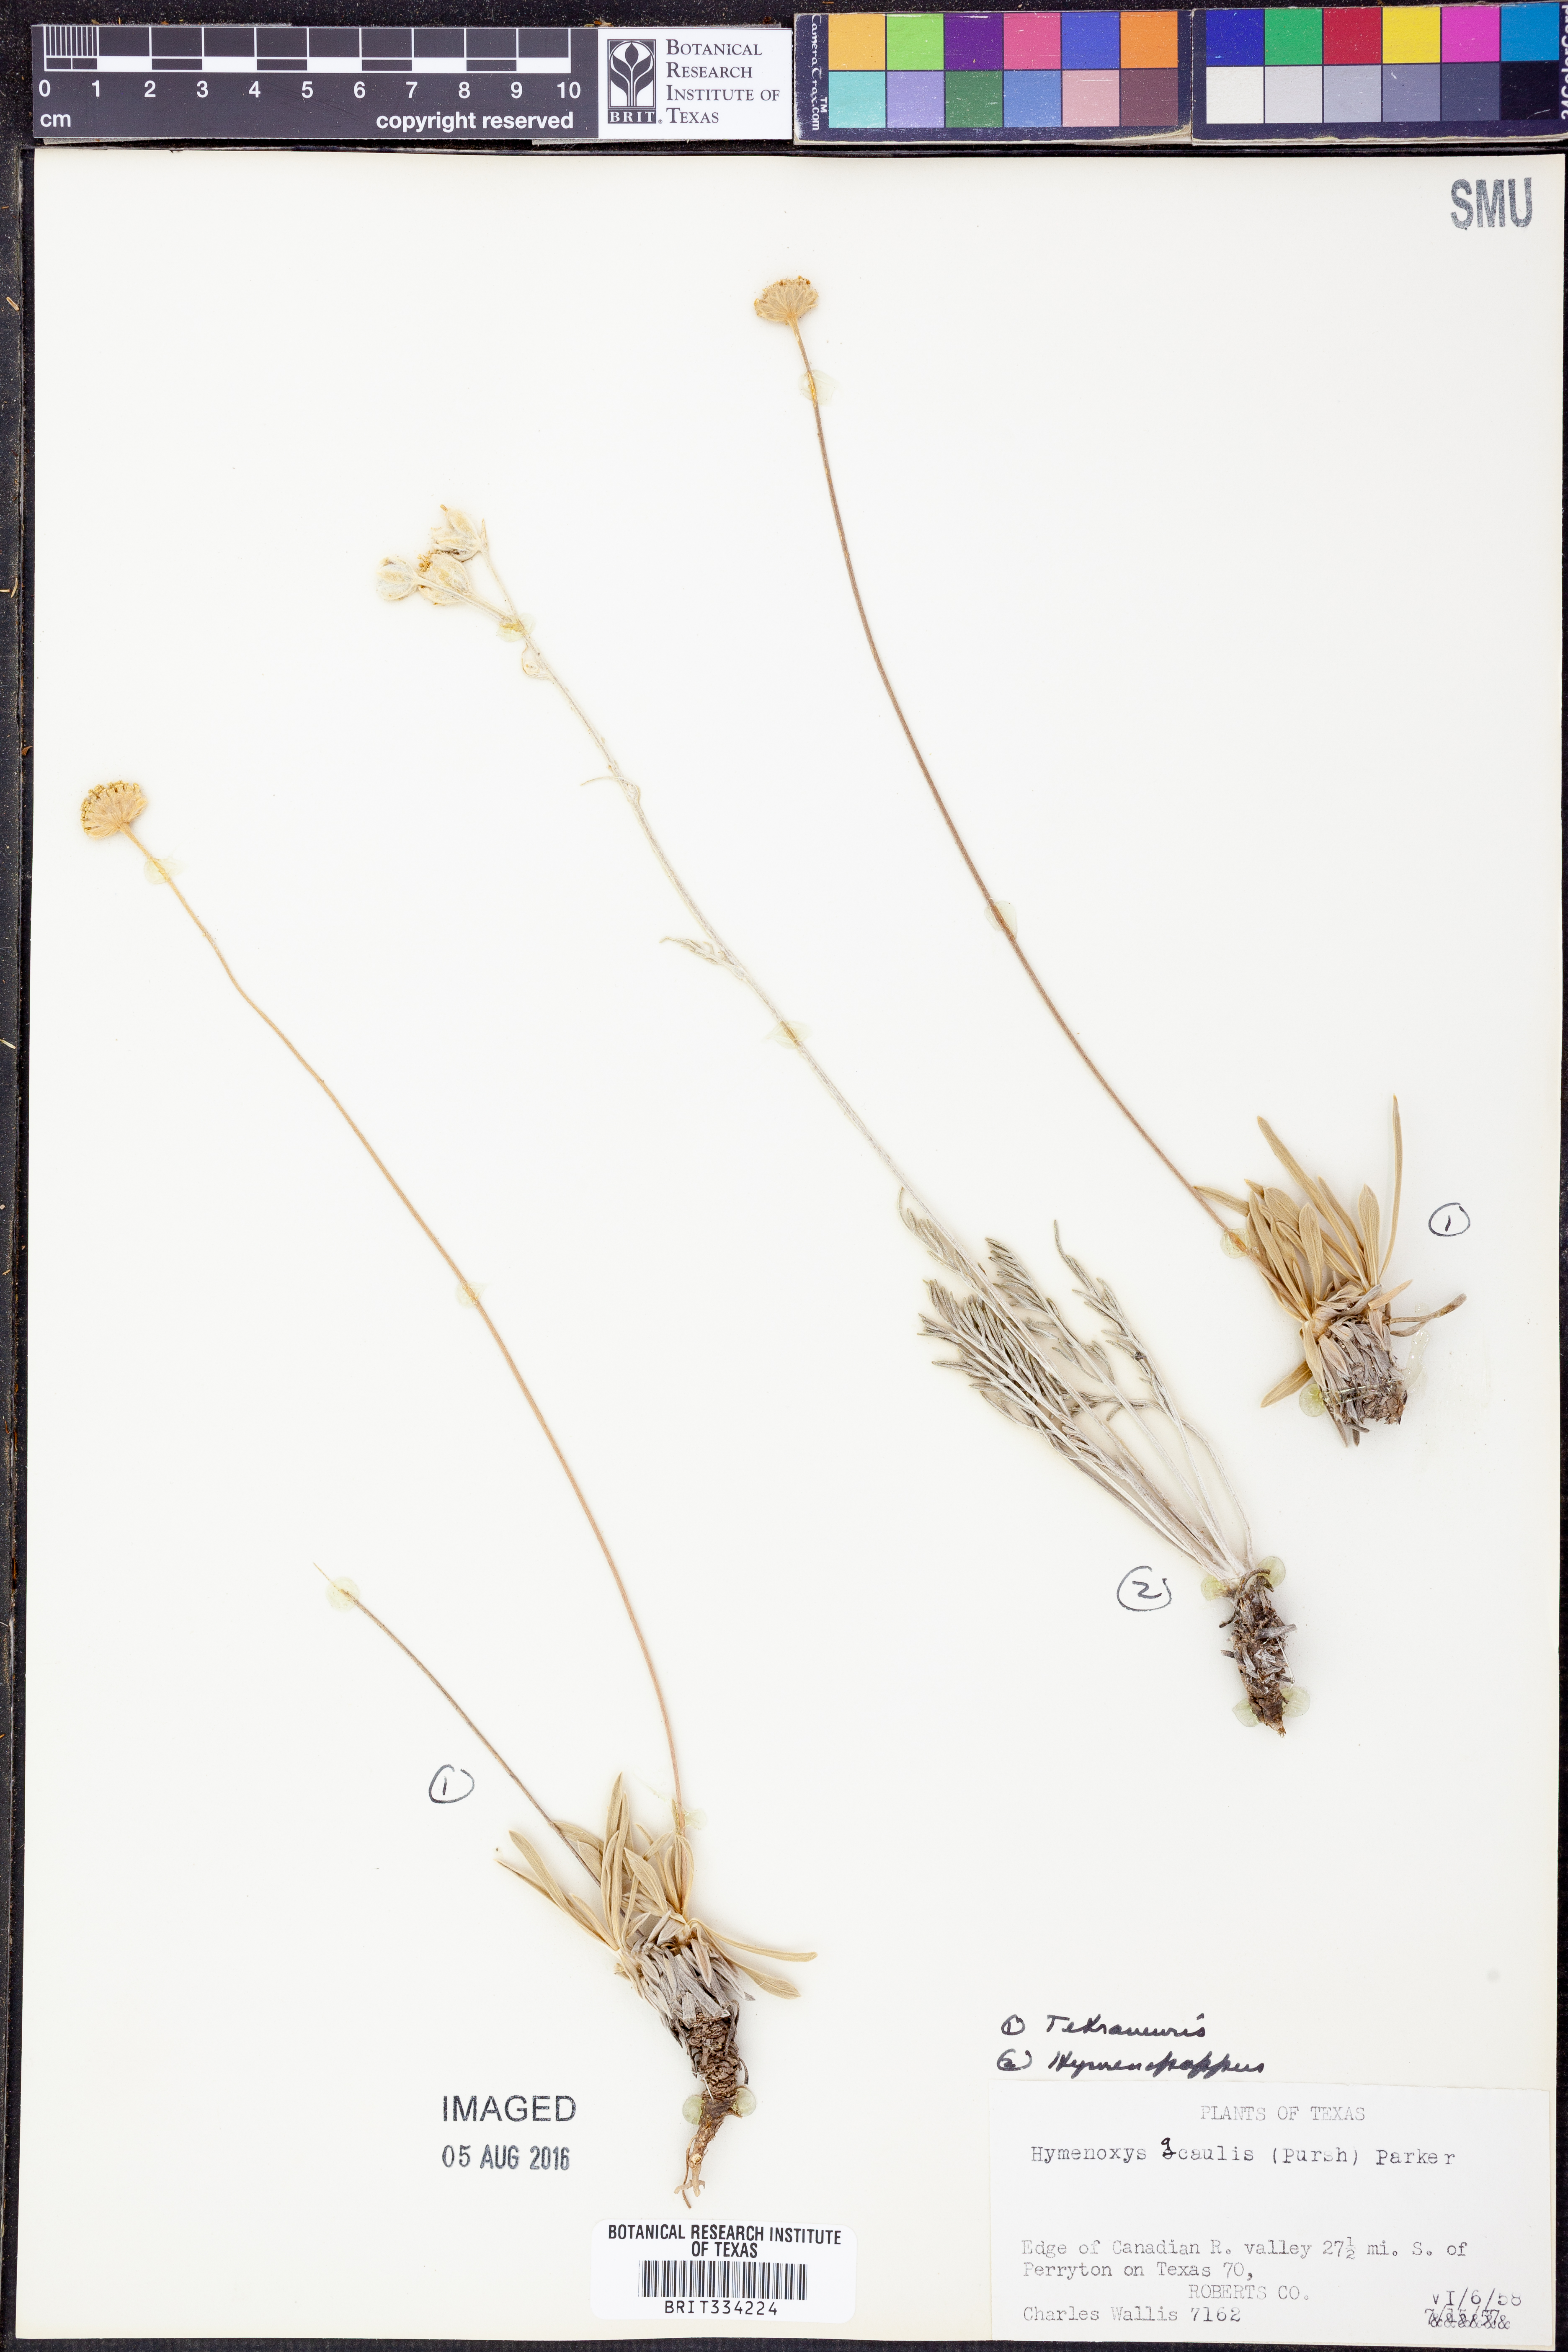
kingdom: Plantae
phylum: Tracheophyta
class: Magnoliopsida
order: Asterales
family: Asteraceae
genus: Tetraneuris
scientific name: Tetraneuris acaulis
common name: Butte marigold
